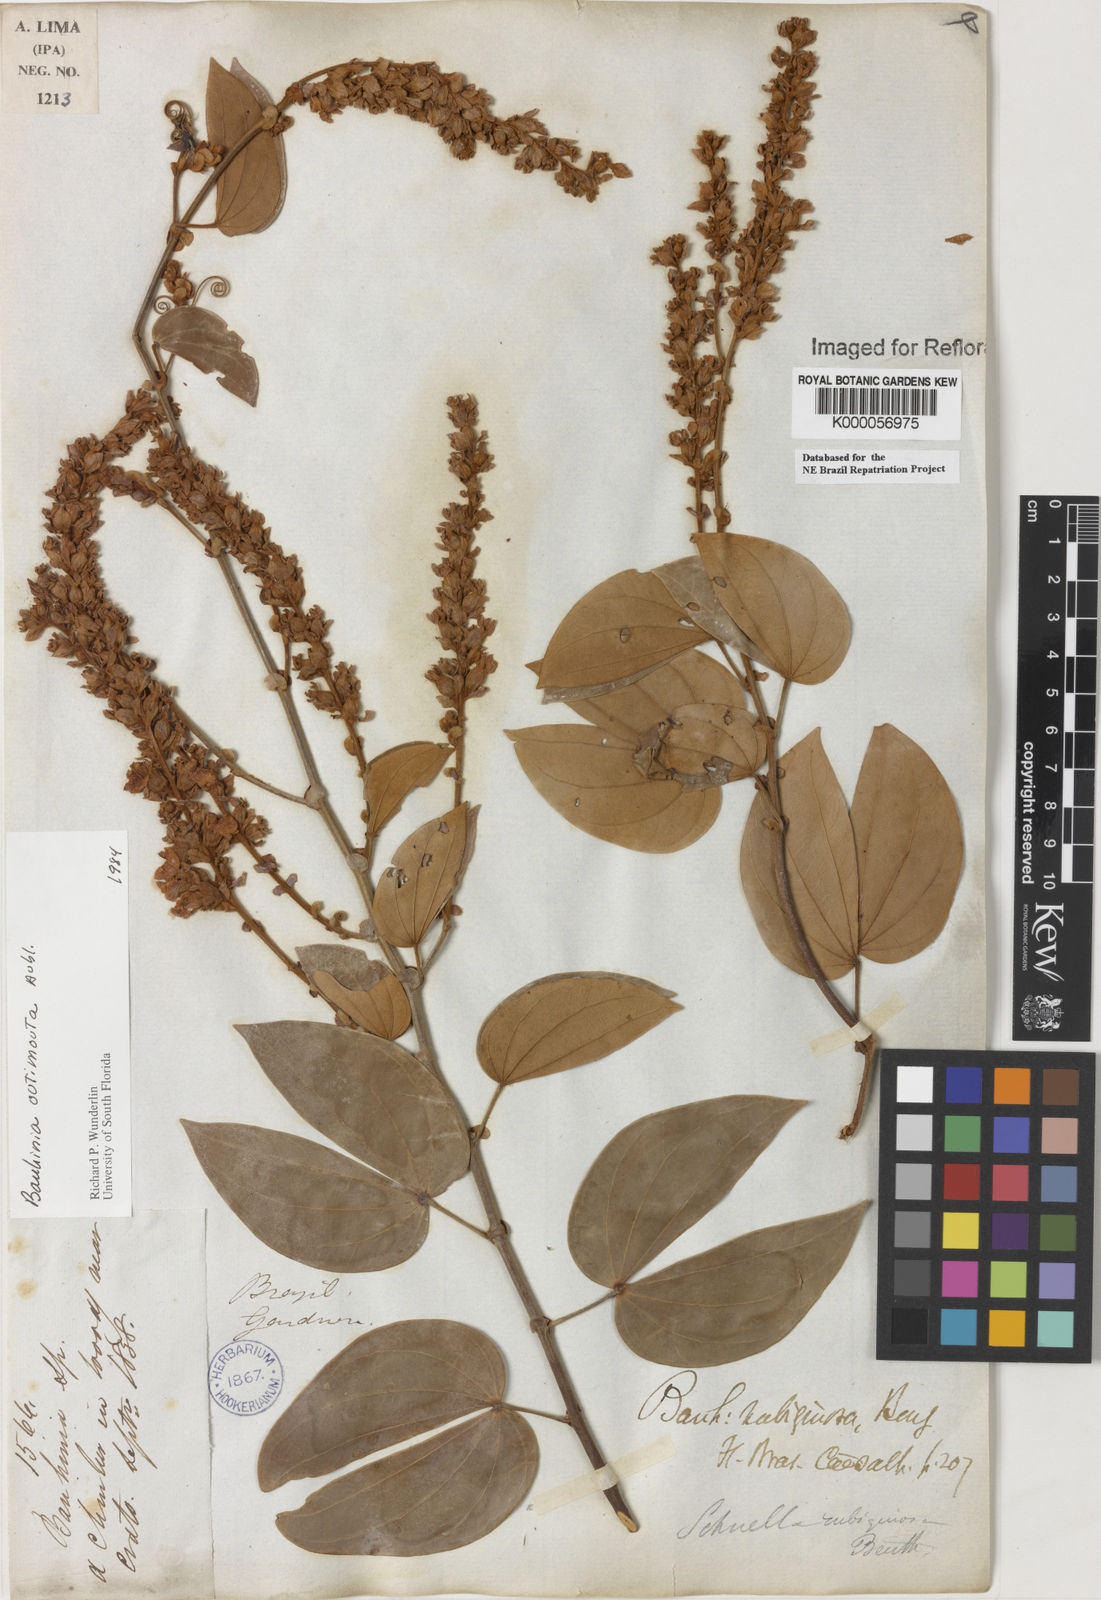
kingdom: Plantae
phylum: Tracheophyta
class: Magnoliopsida
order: Fabales
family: Fabaceae
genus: Schnella
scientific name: Schnella outimouta
